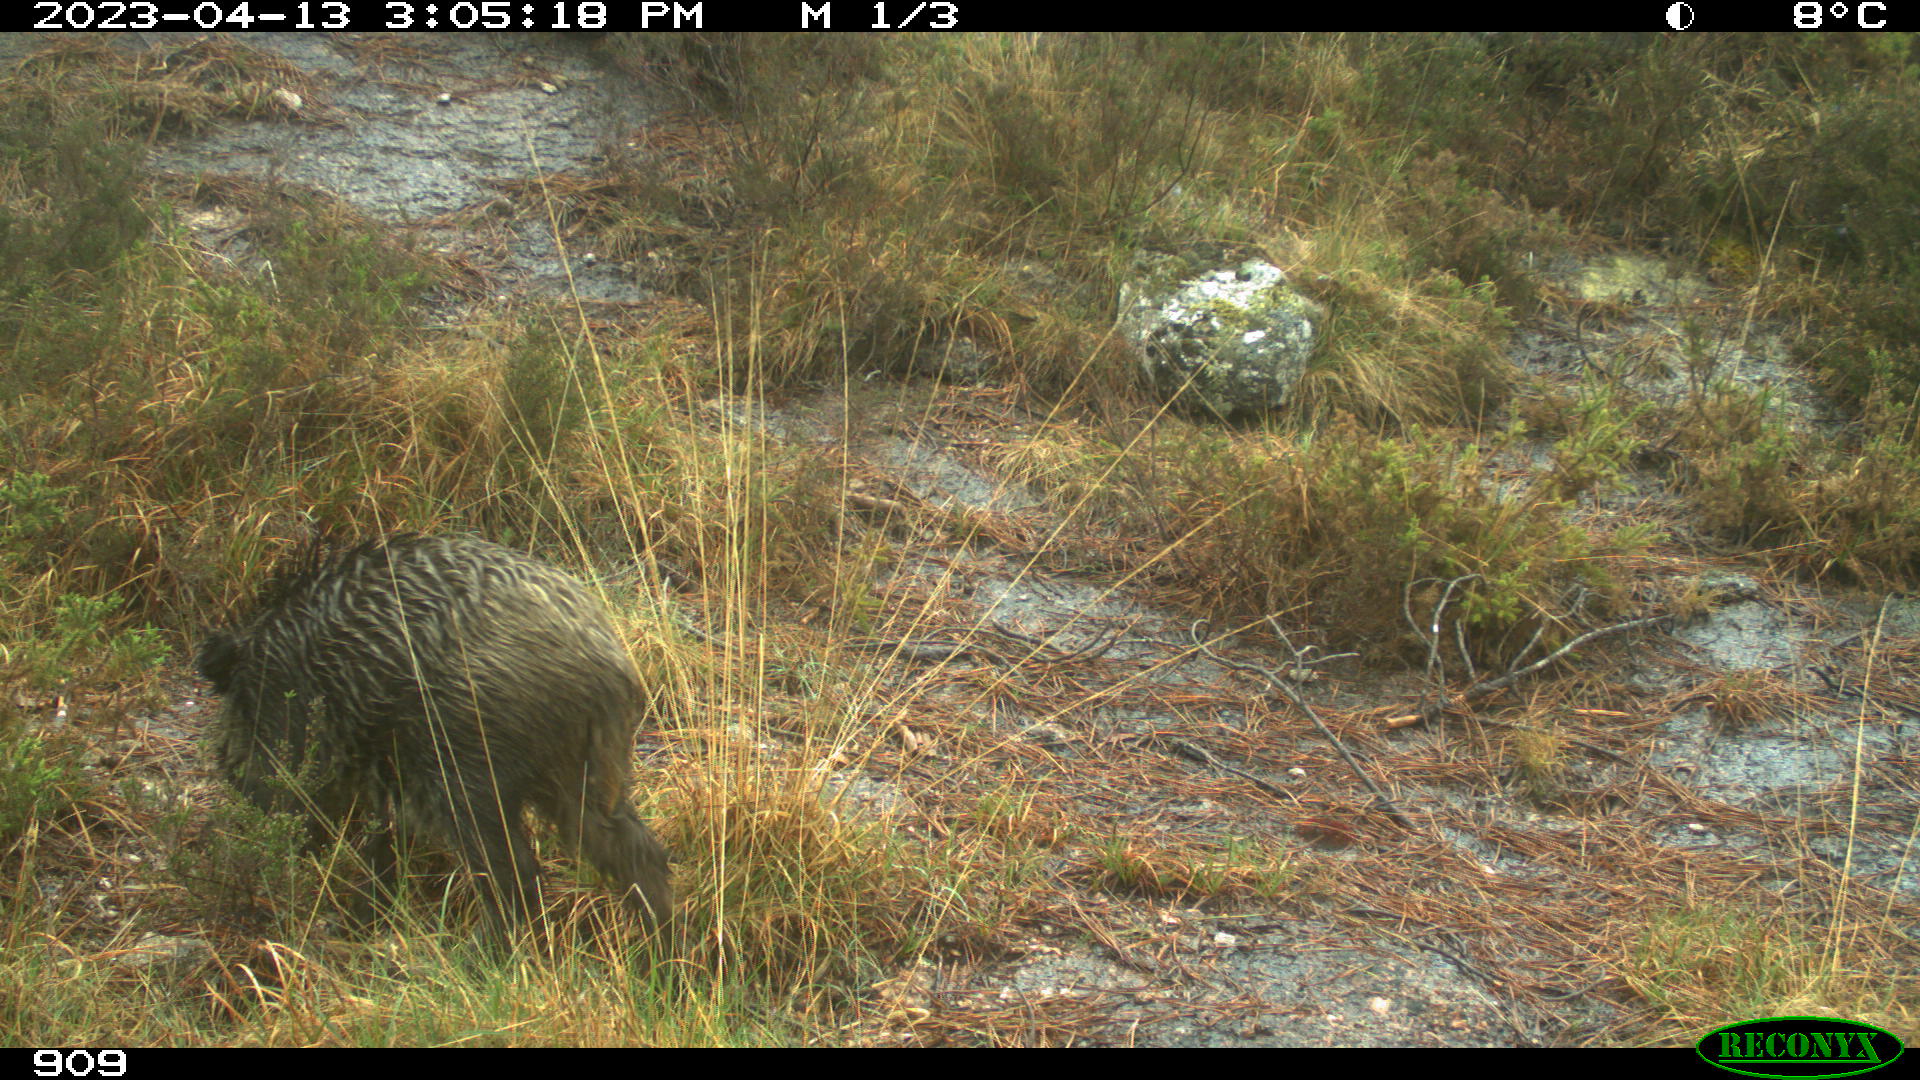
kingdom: Animalia
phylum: Chordata
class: Mammalia
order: Artiodactyla
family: Suidae
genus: Sus
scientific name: Sus scrofa
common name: Wild boar
